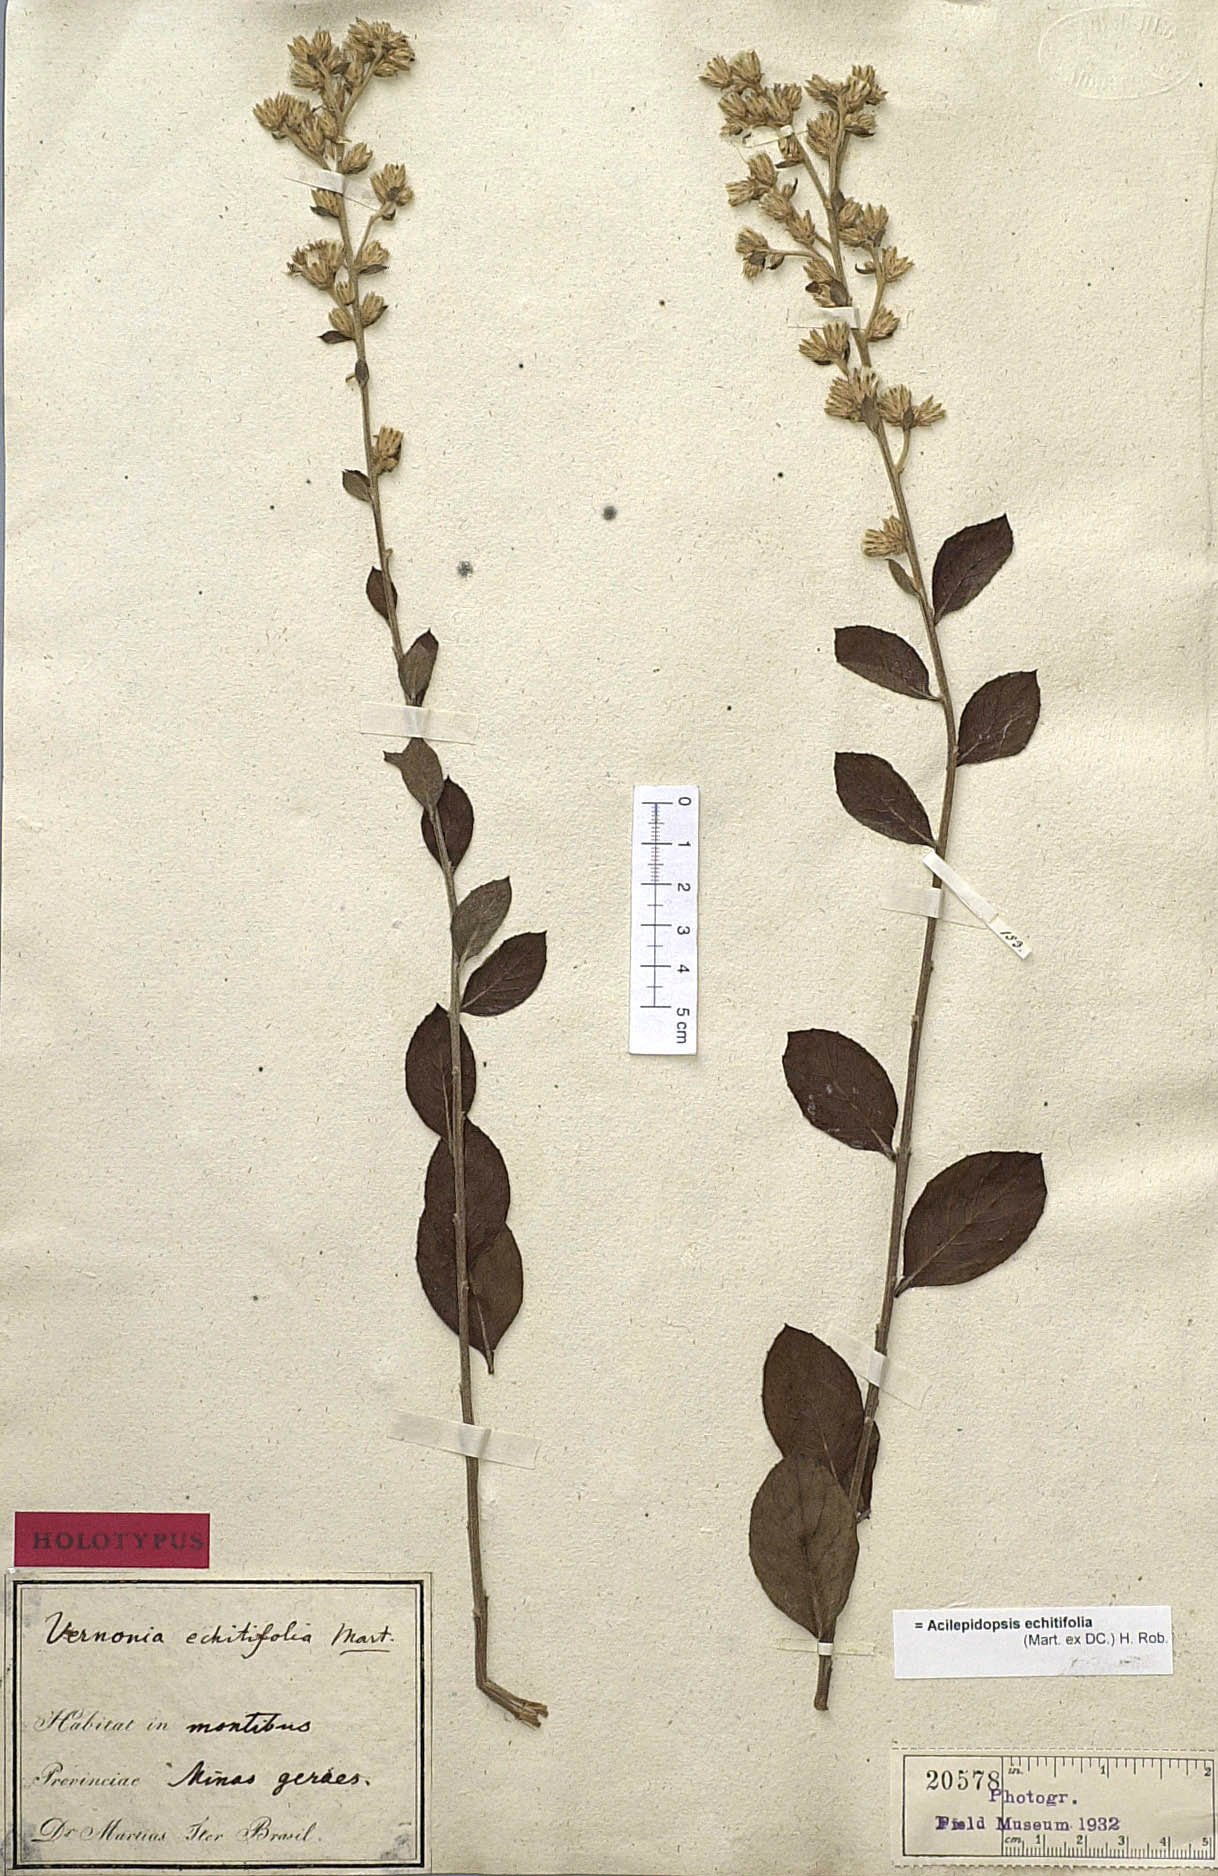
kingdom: Plantae
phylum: Tracheophyta
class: Magnoliopsida
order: Asterales
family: Asteraceae
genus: Acilepidopsis
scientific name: Acilepidopsis echitifolia
